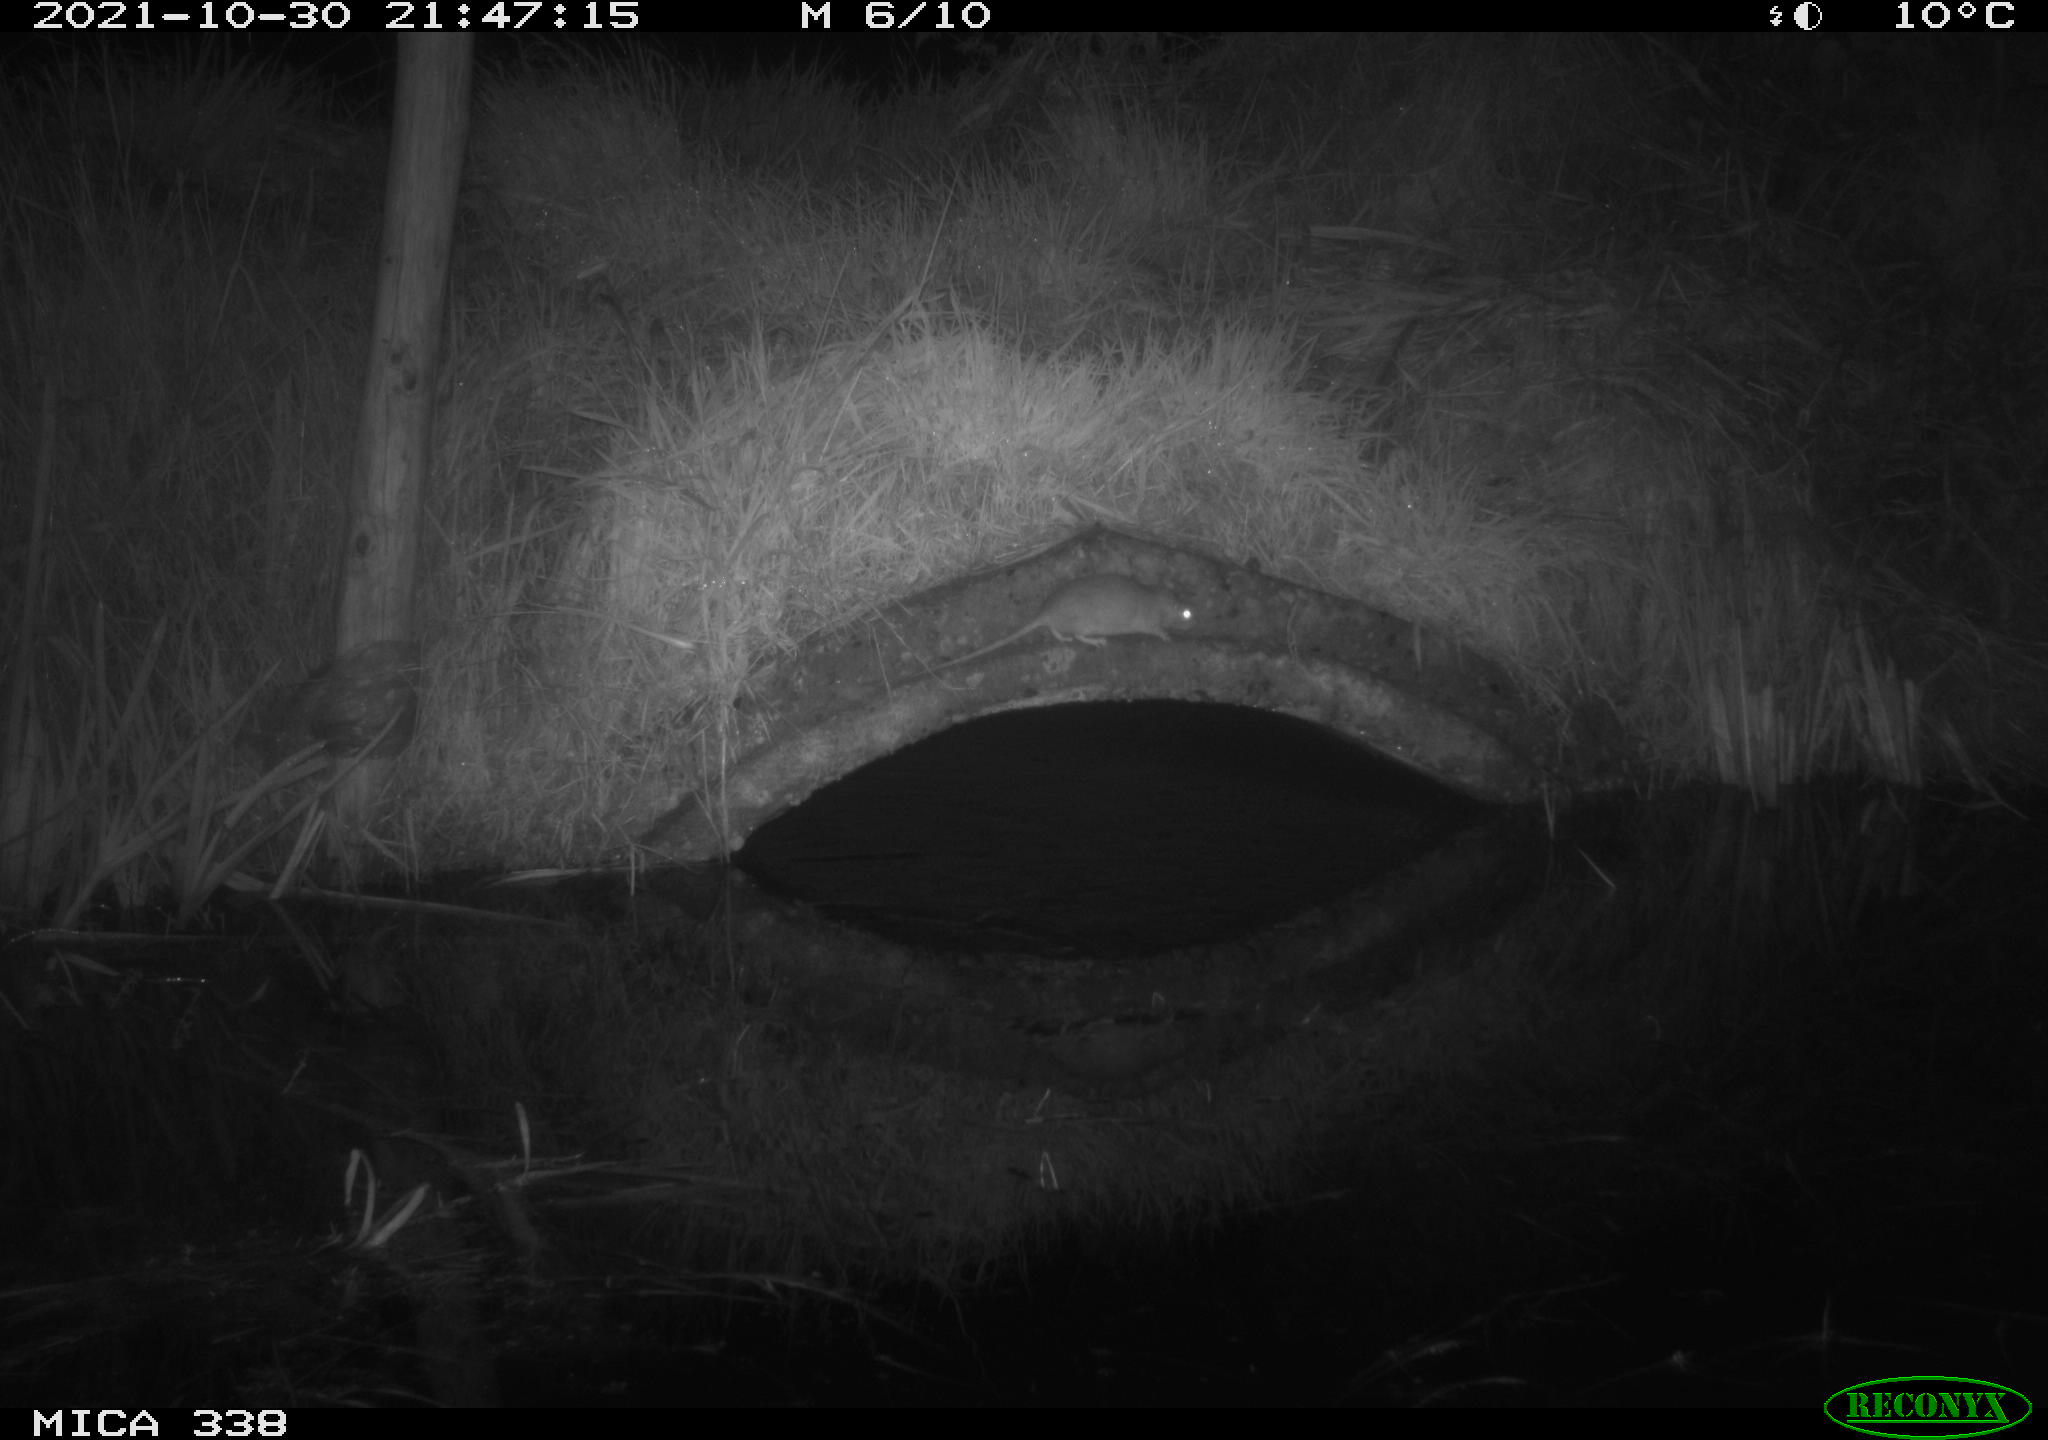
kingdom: Animalia
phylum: Chordata
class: Mammalia
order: Rodentia
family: Muridae
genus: Rattus
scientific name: Rattus norvegicus
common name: Brown rat
